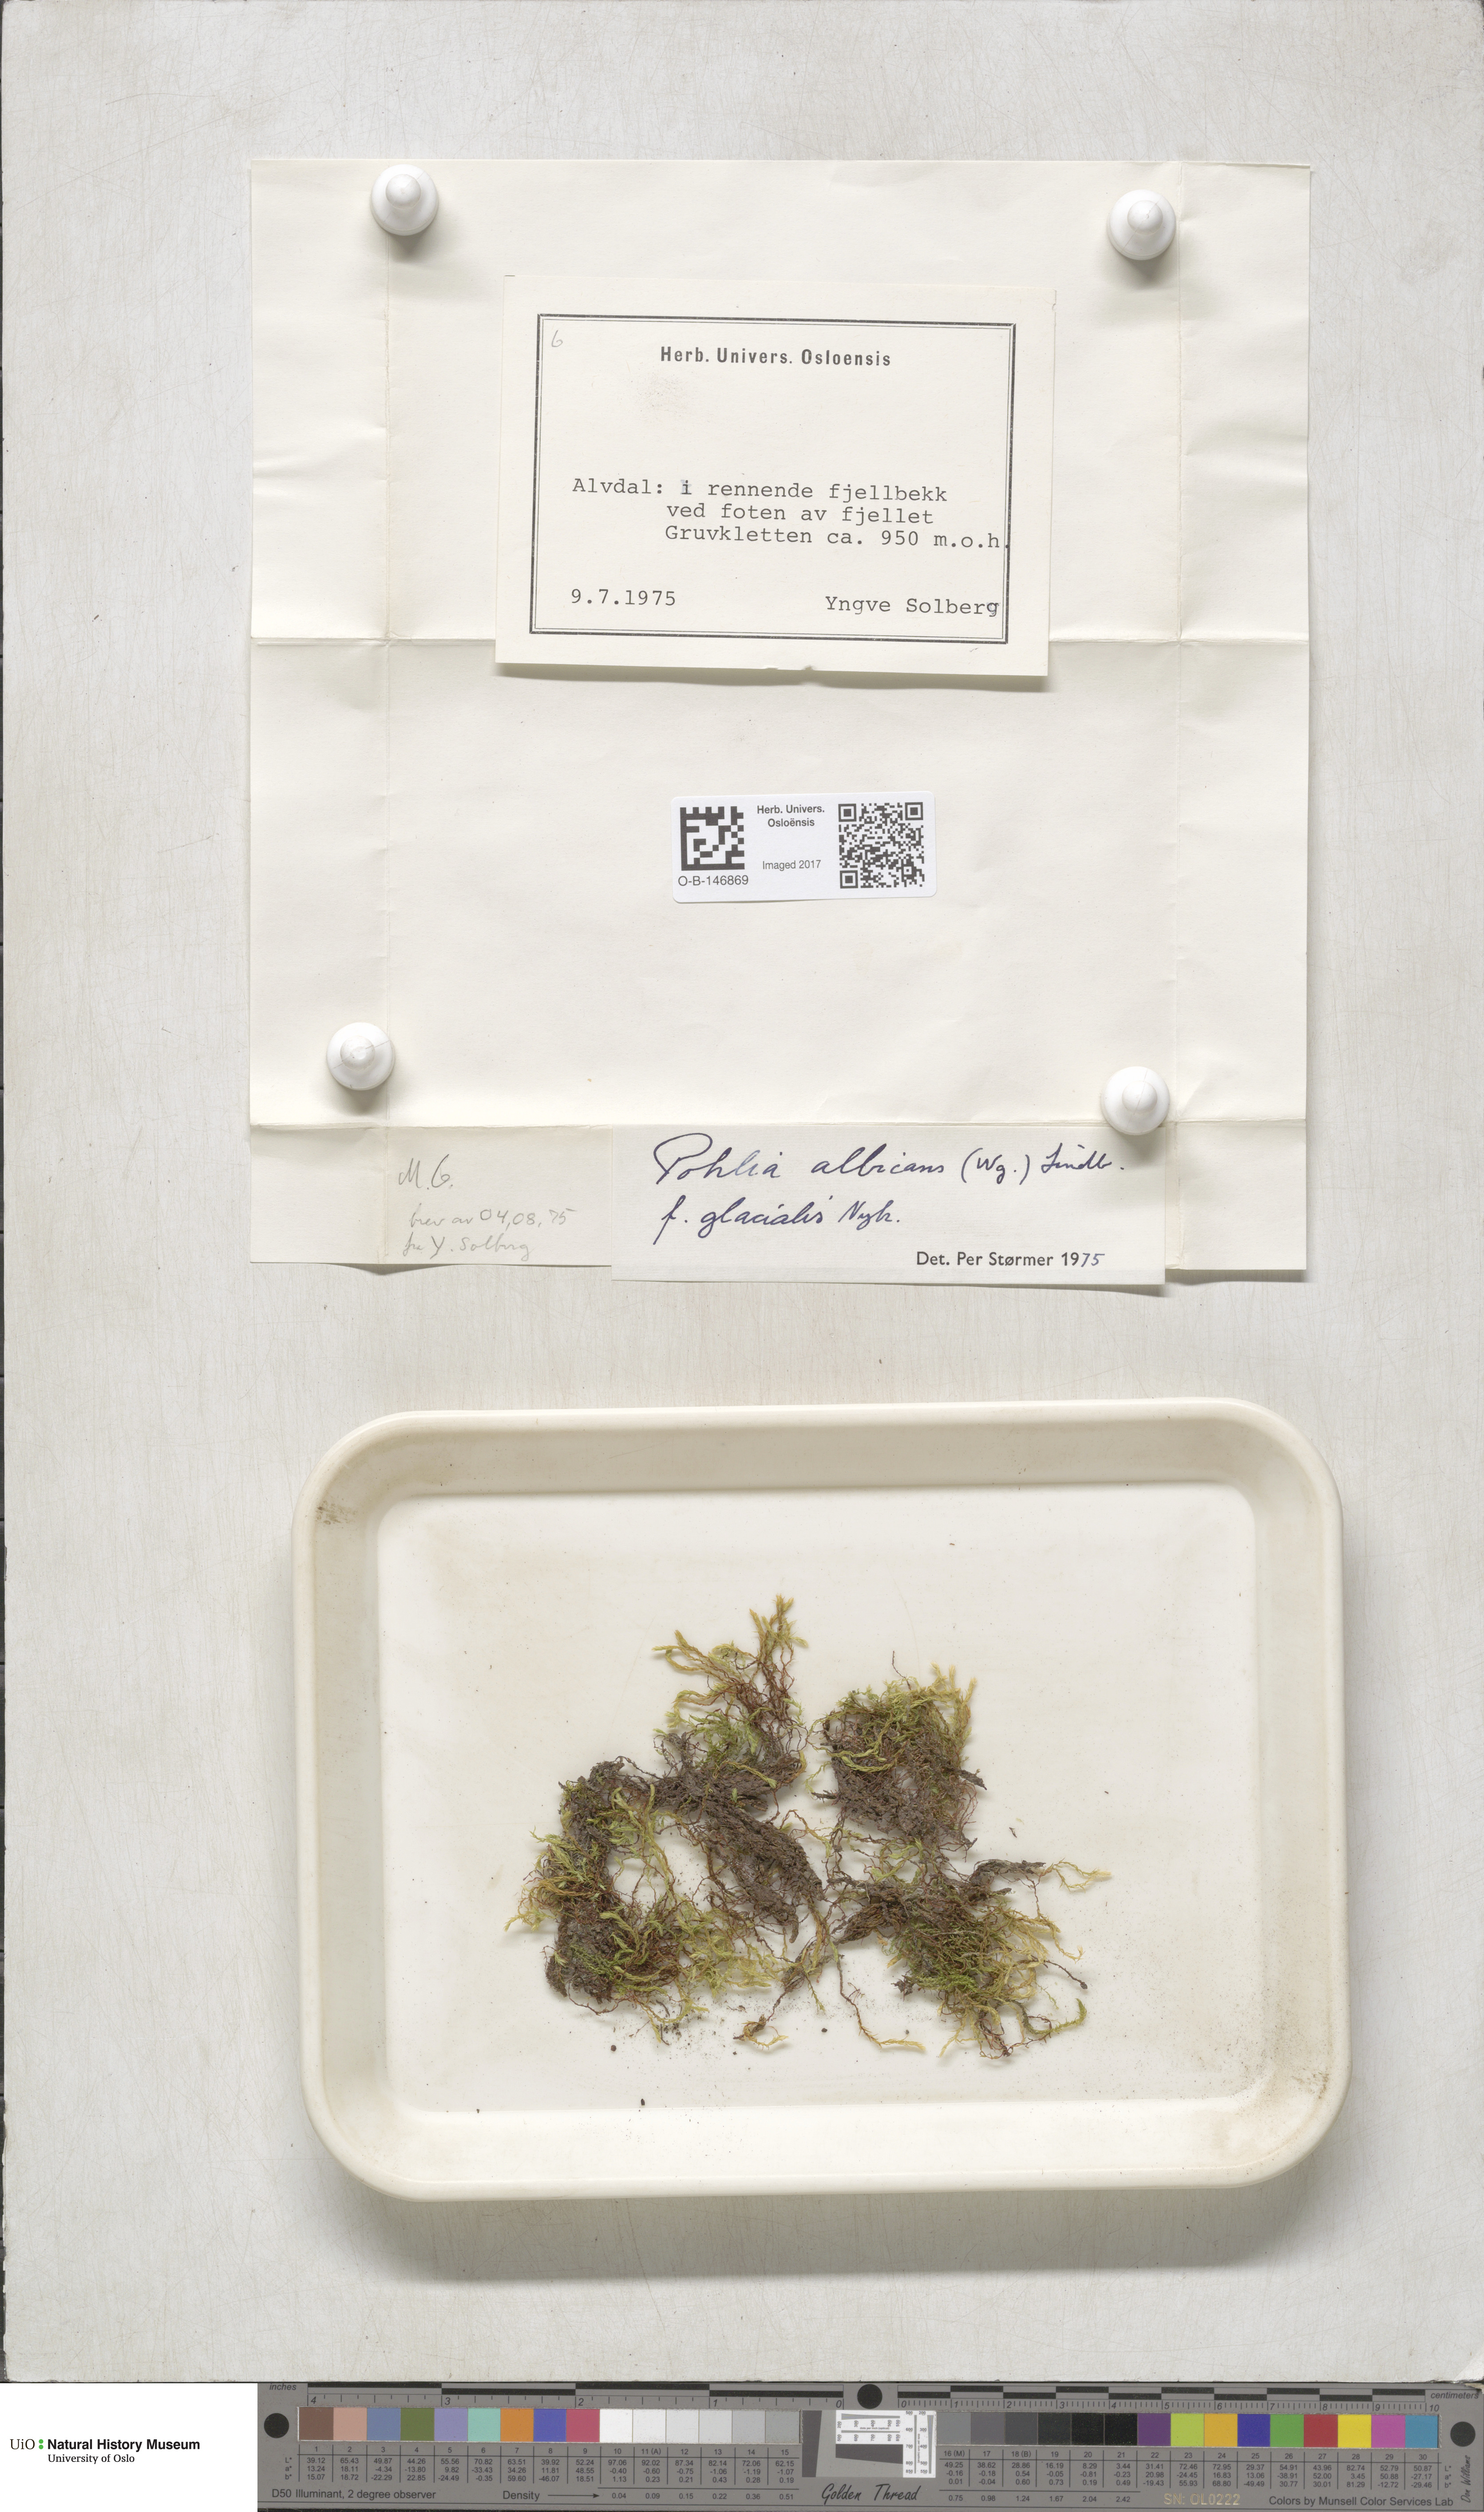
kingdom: Plantae
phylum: Bryophyta
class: Bryopsida
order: Bryales
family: Mniaceae
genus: Pohlia
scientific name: Pohlia wahlenbergii
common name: Wahlenberg's nodding moss
